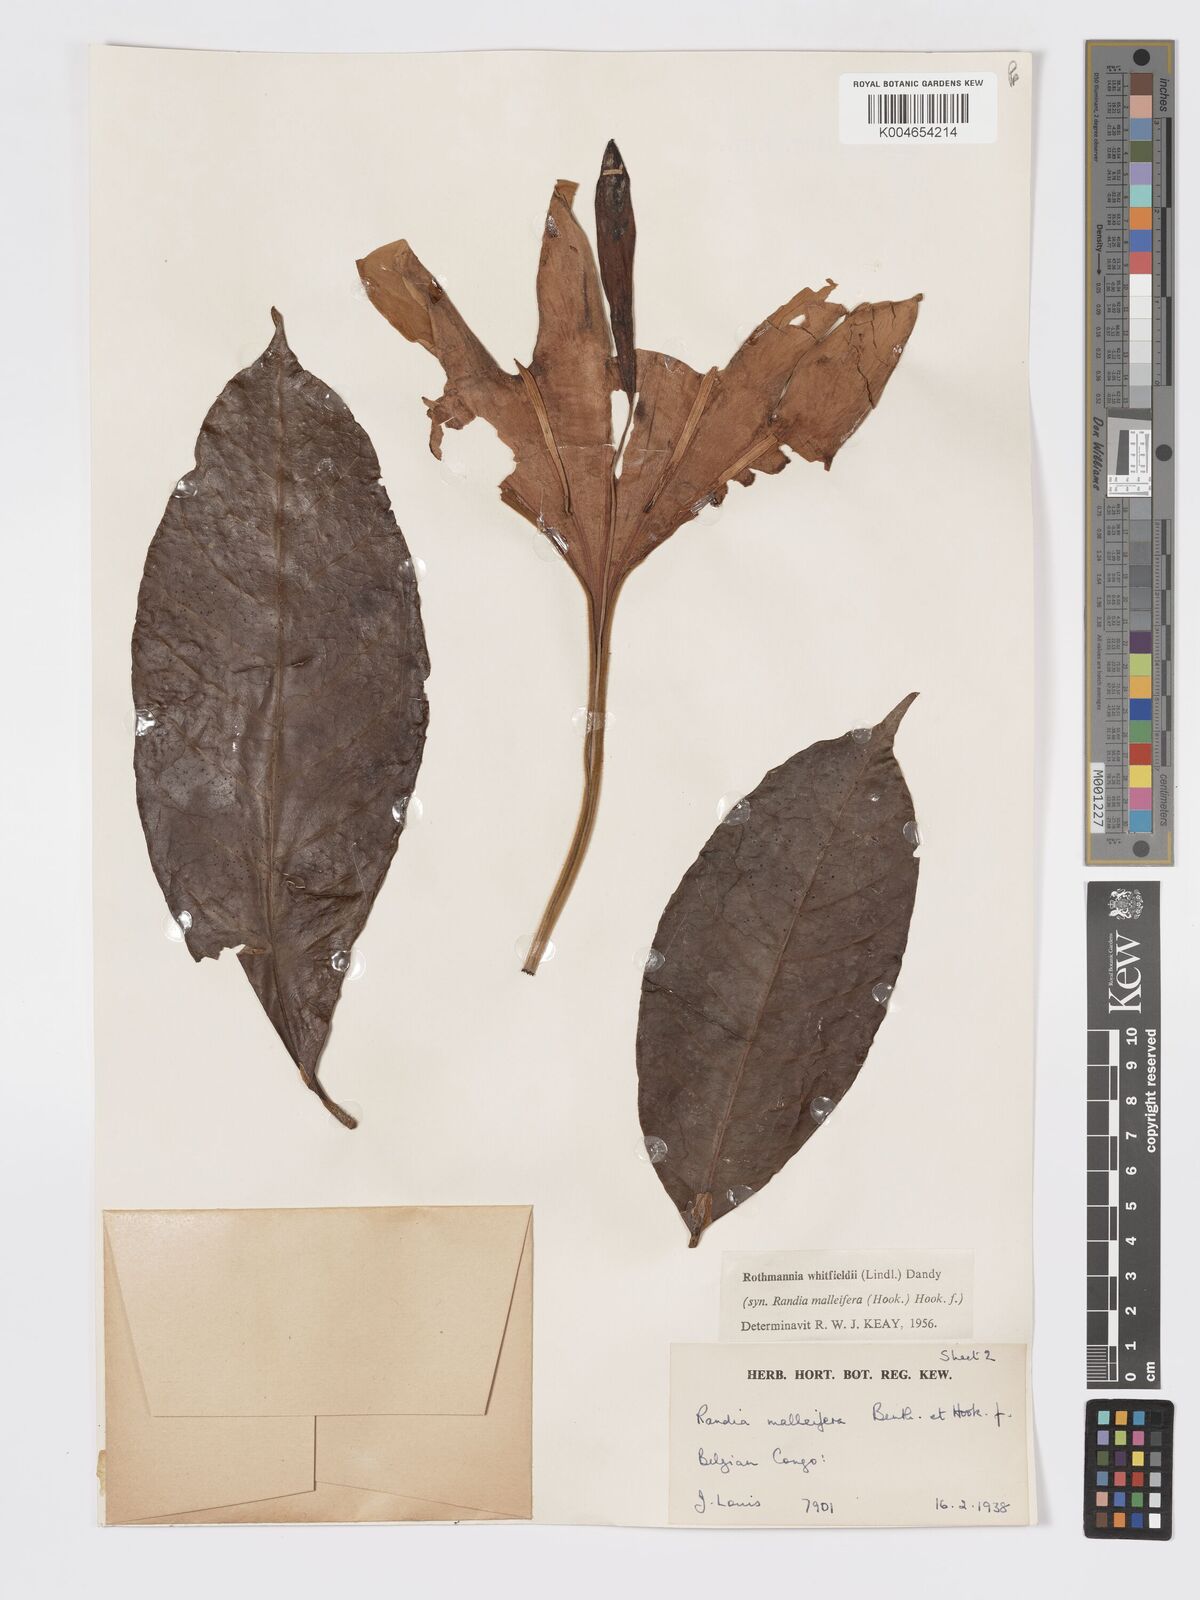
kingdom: Plantae
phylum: Tracheophyta
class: Magnoliopsida
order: Gentianales
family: Rubiaceae
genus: Rothmannia
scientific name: Rothmannia whitfieldii
